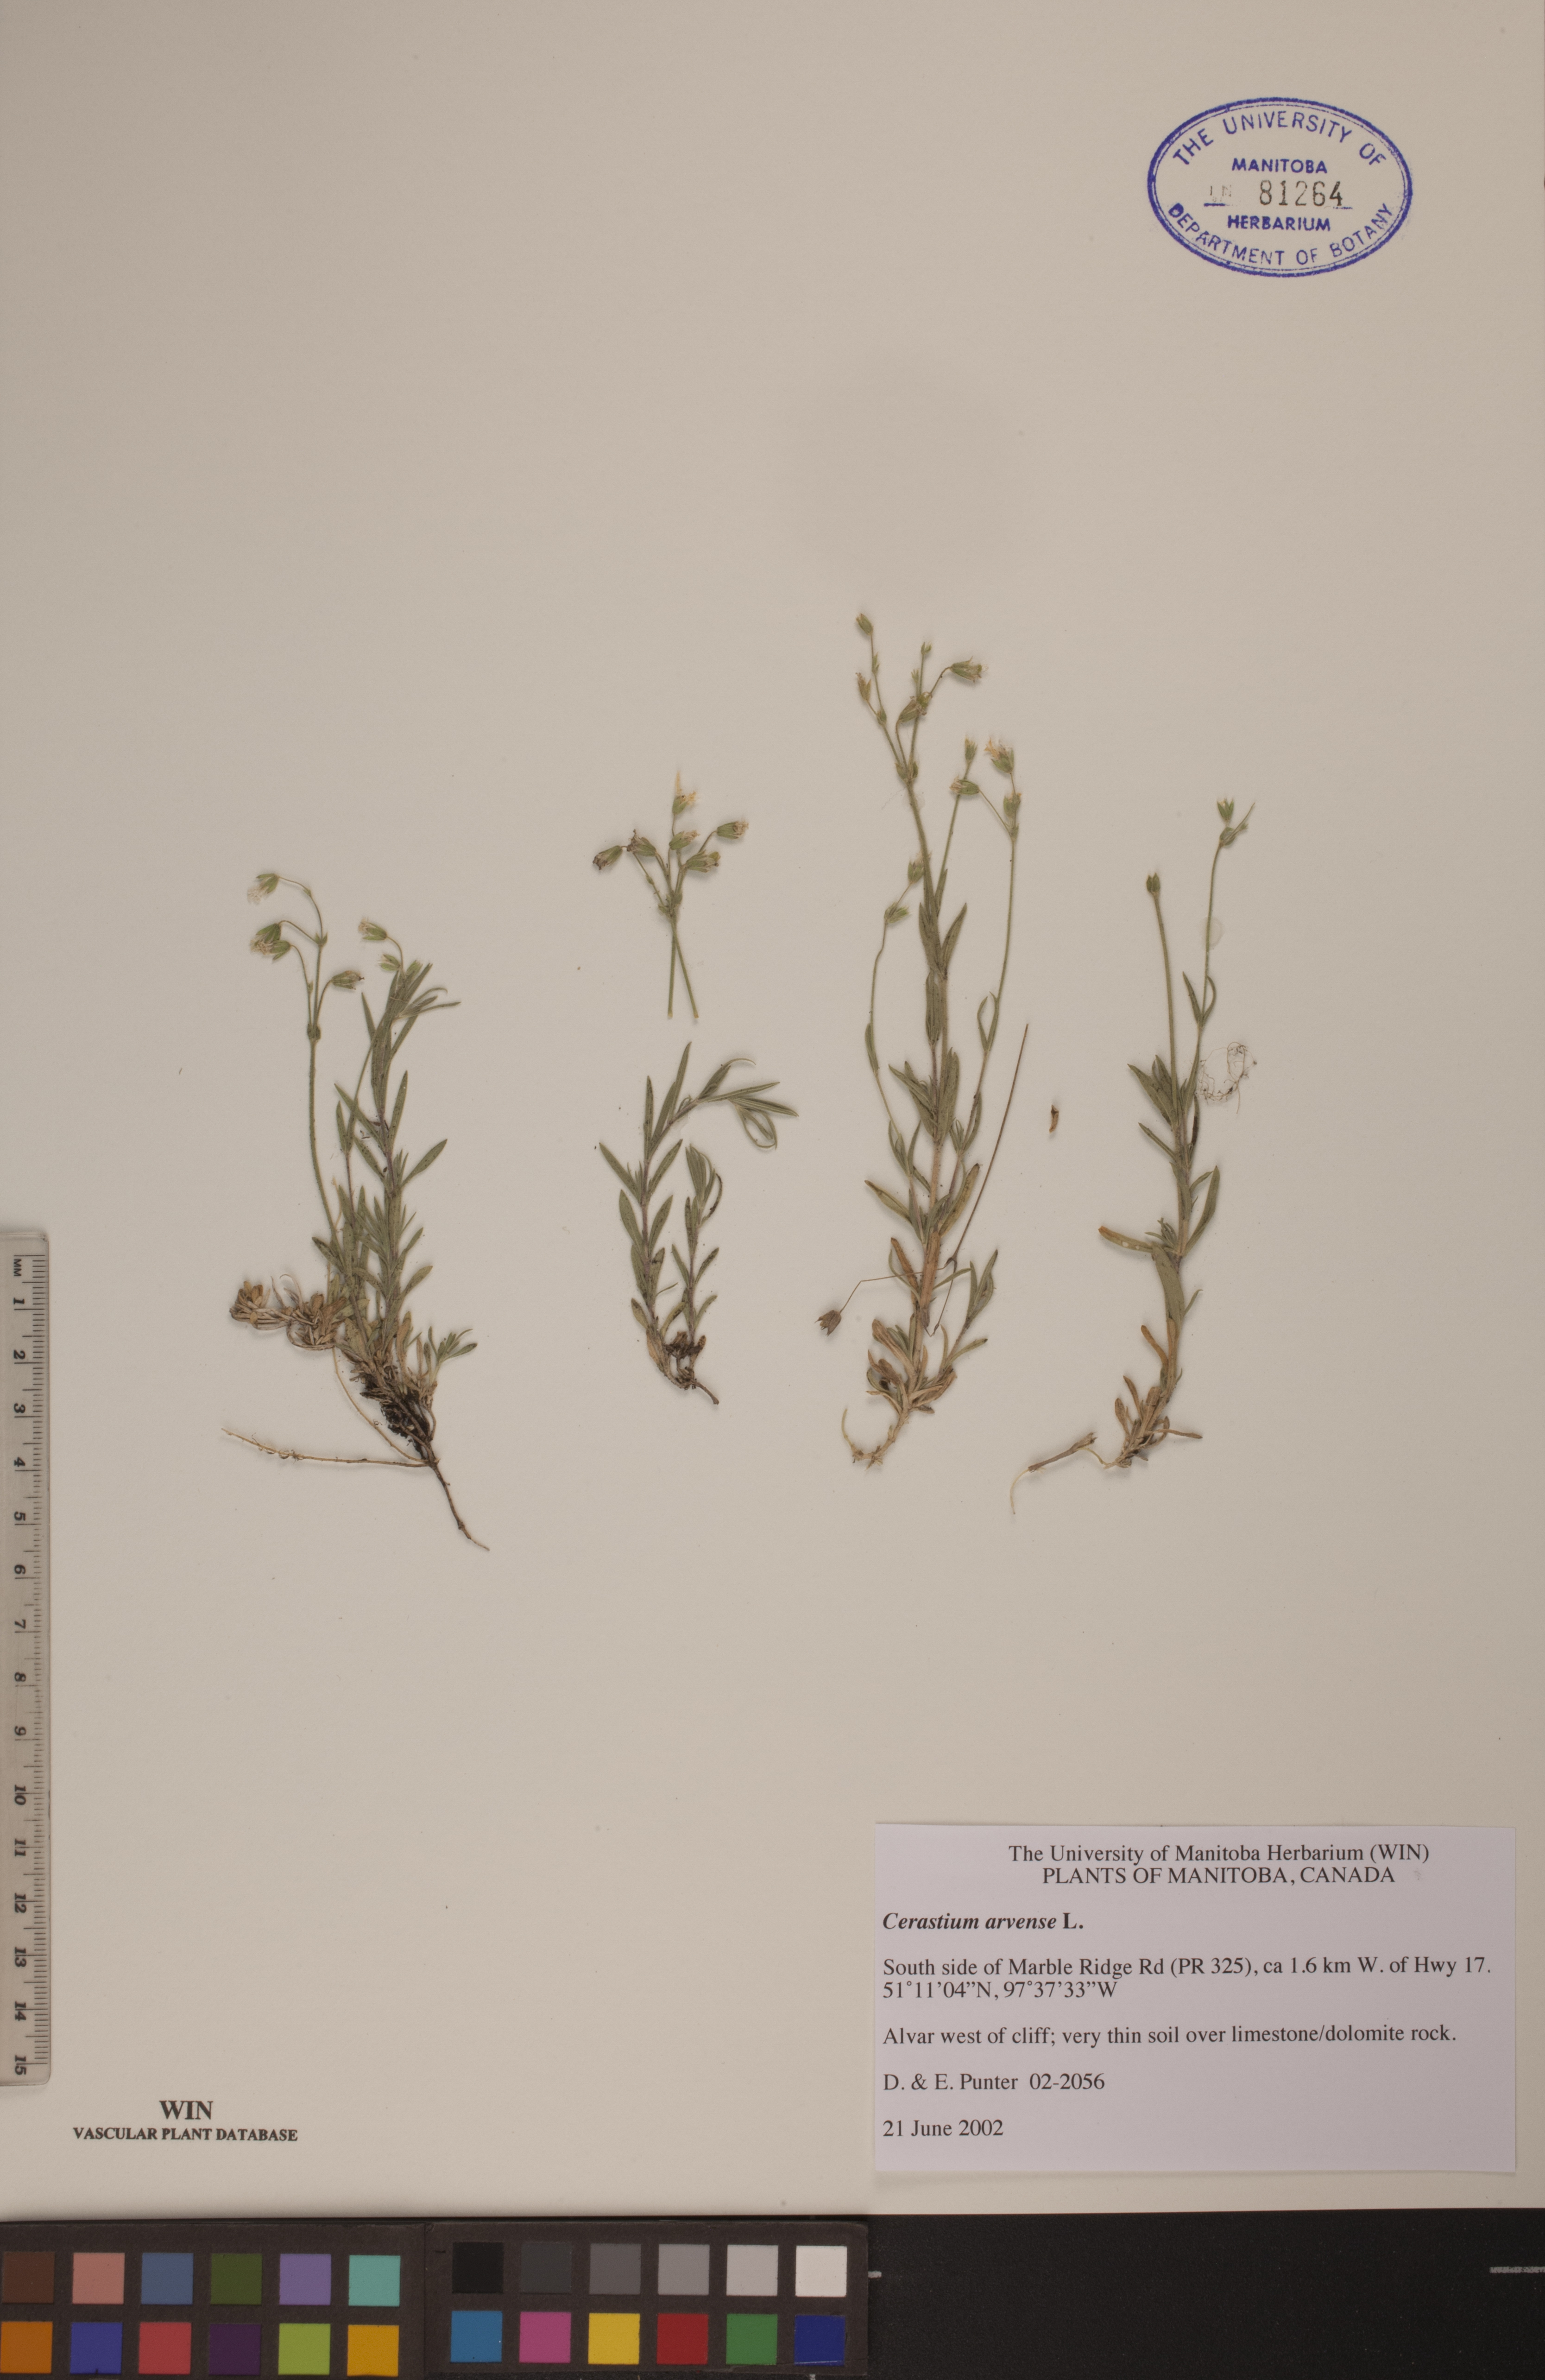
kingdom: Plantae
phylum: Tracheophyta
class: Magnoliopsida
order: Caryophyllales
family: Caryophyllaceae
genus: Cerastium
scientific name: Cerastium arvense
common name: Field mouse-ear
